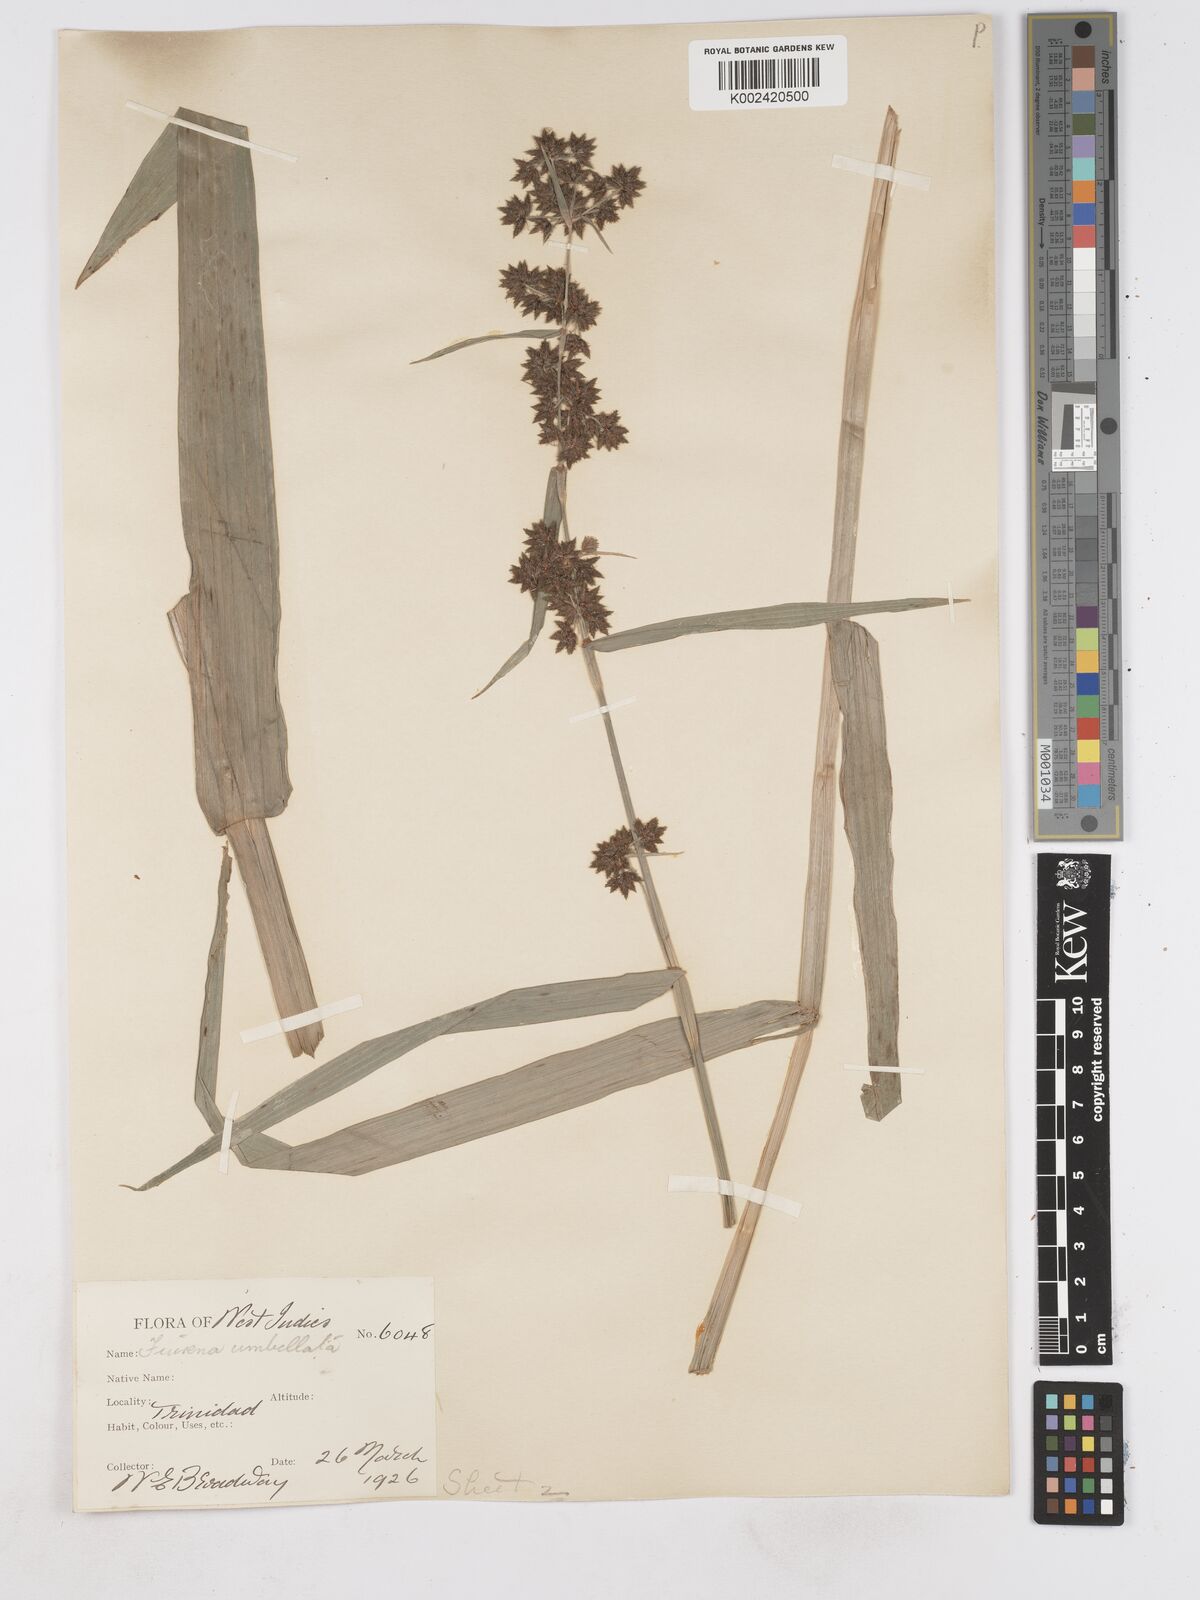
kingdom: Plantae
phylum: Tracheophyta
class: Liliopsida
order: Poales
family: Cyperaceae
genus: Fuirena
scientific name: Fuirena umbellata
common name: Yefen
